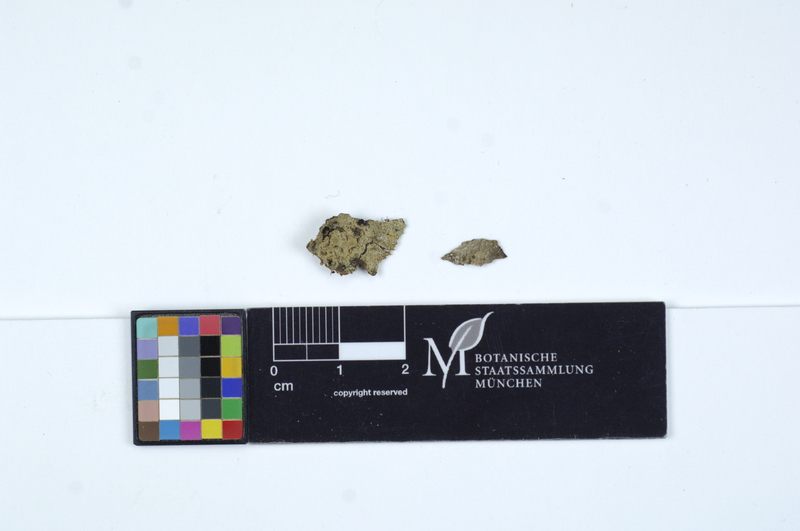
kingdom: Plantae
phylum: Tracheophyta
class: Magnoliopsida
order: Malpighiales
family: Salicaceae
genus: Populus
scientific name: Populus
